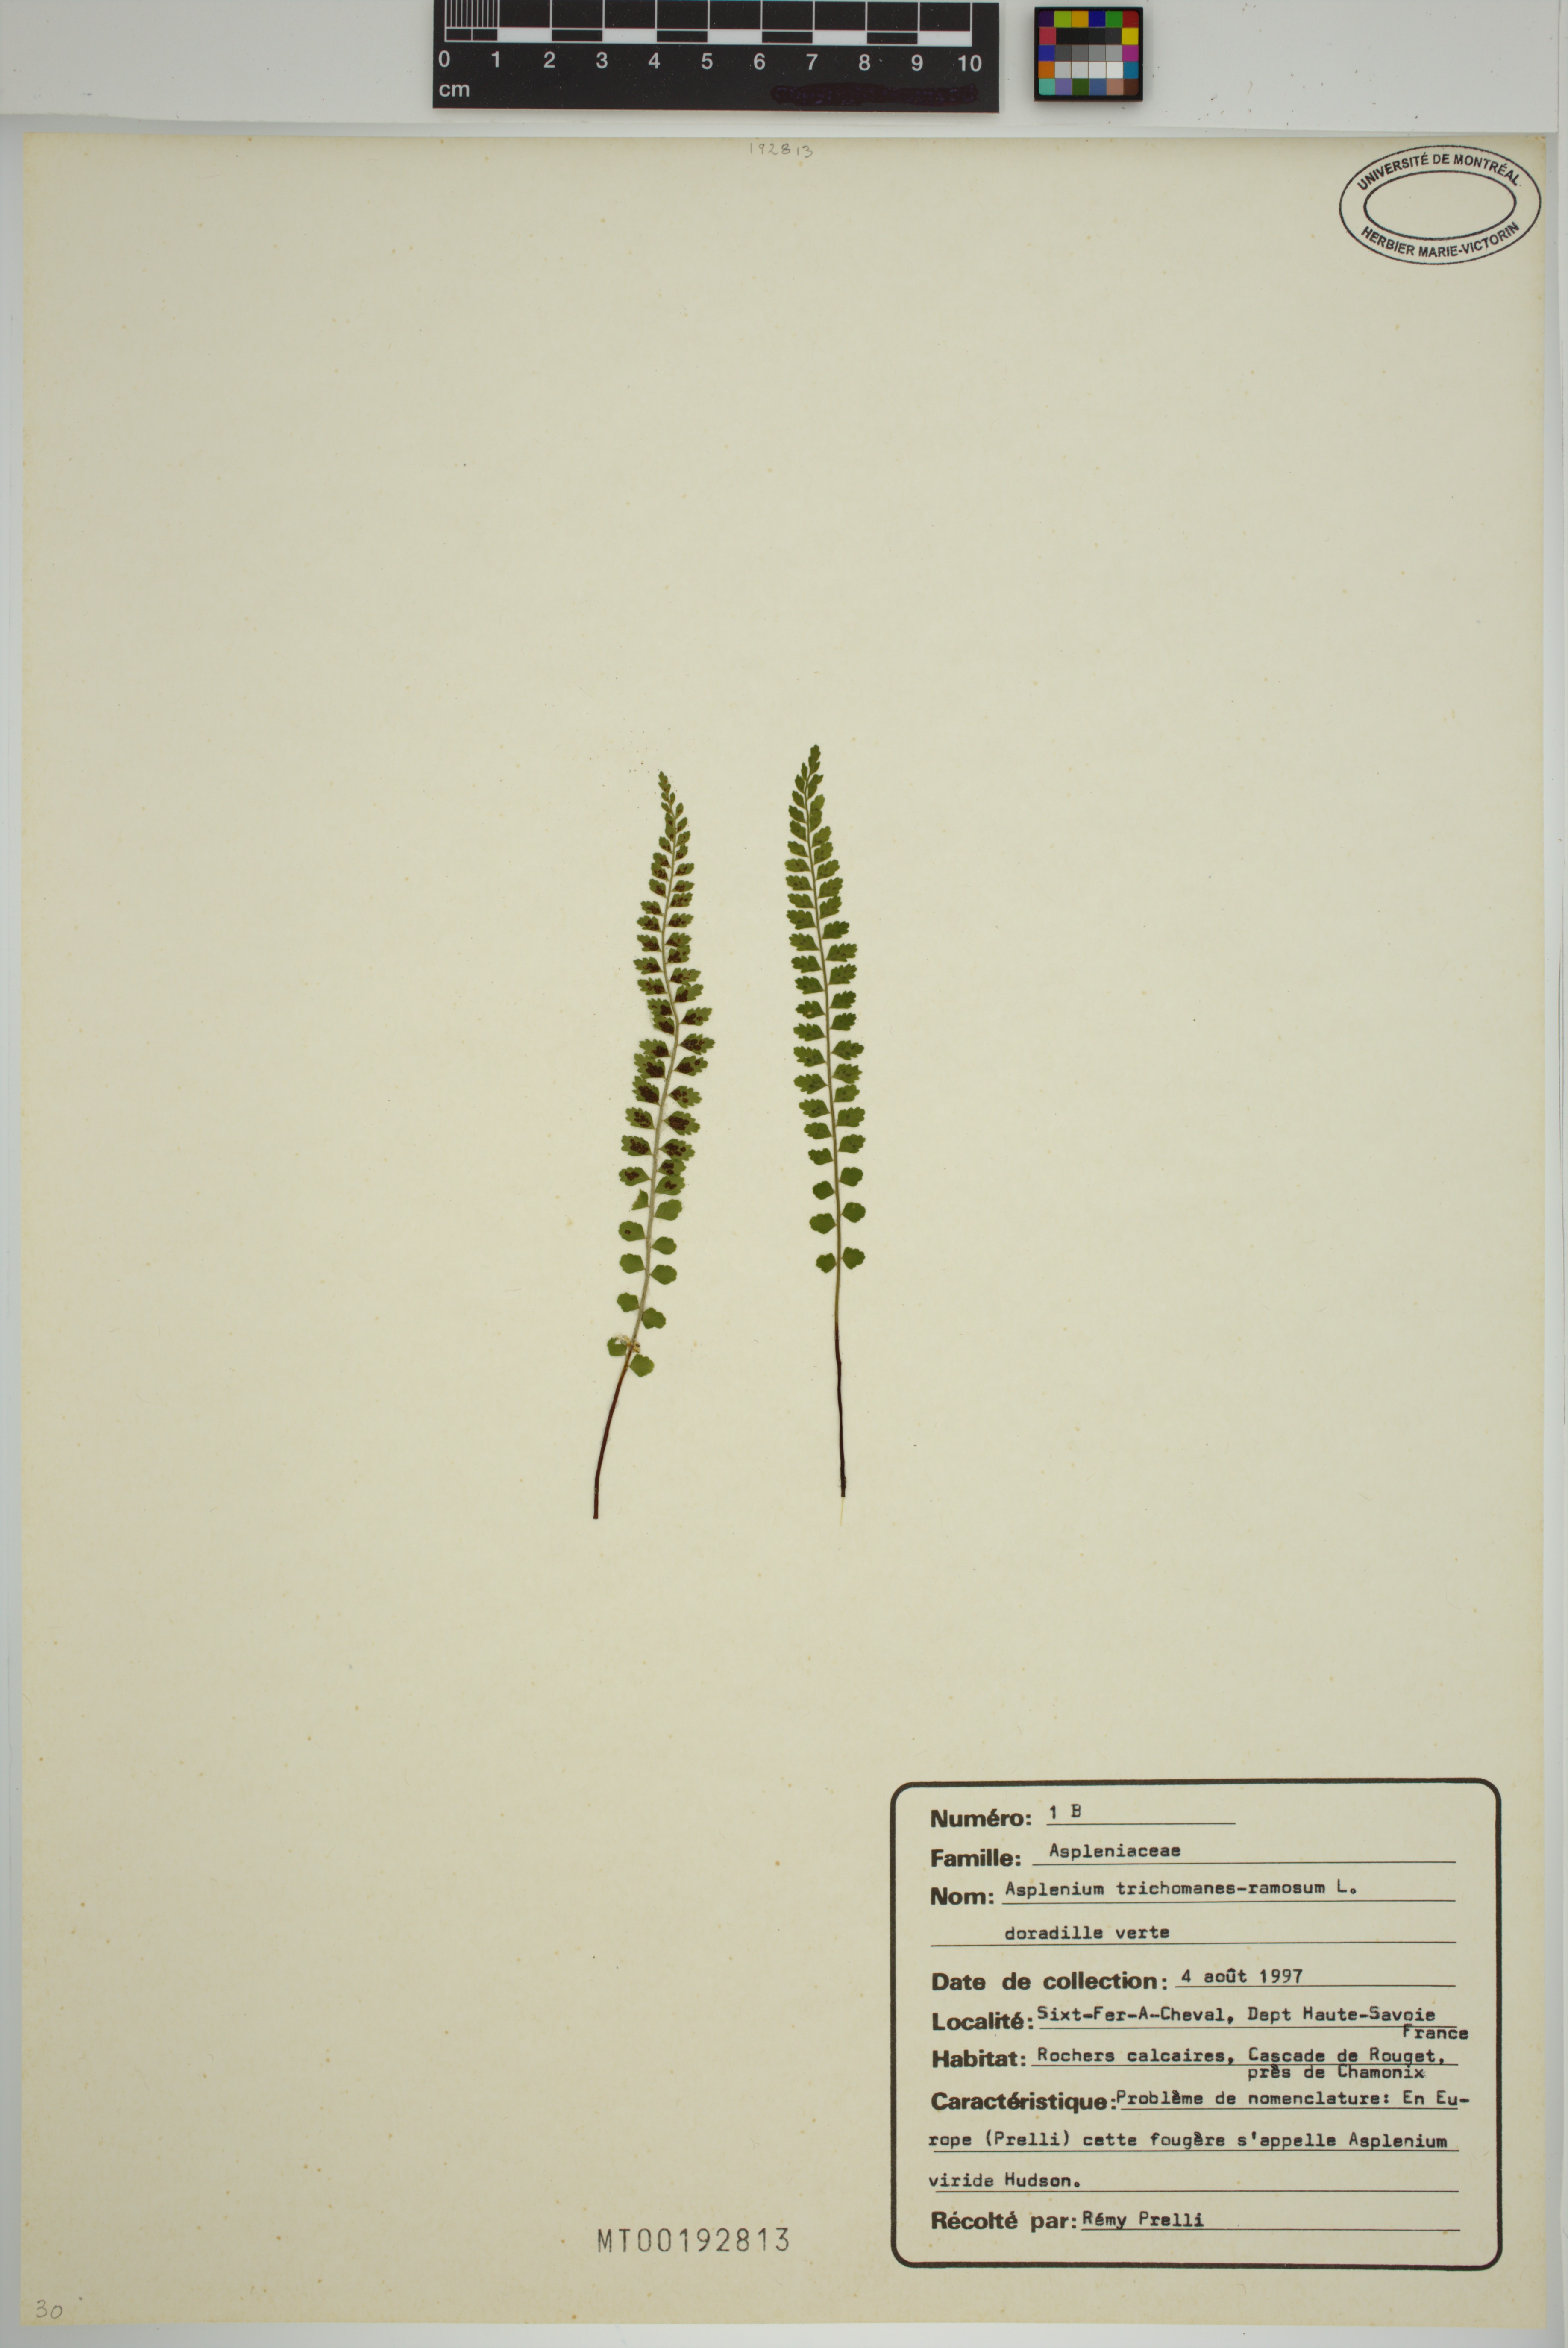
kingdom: Plantae
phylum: Tracheophyta
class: Polypodiopsida
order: Polypodiales
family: Aspleniaceae
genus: Asplenium
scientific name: Asplenium viride
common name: Green spleenwort
